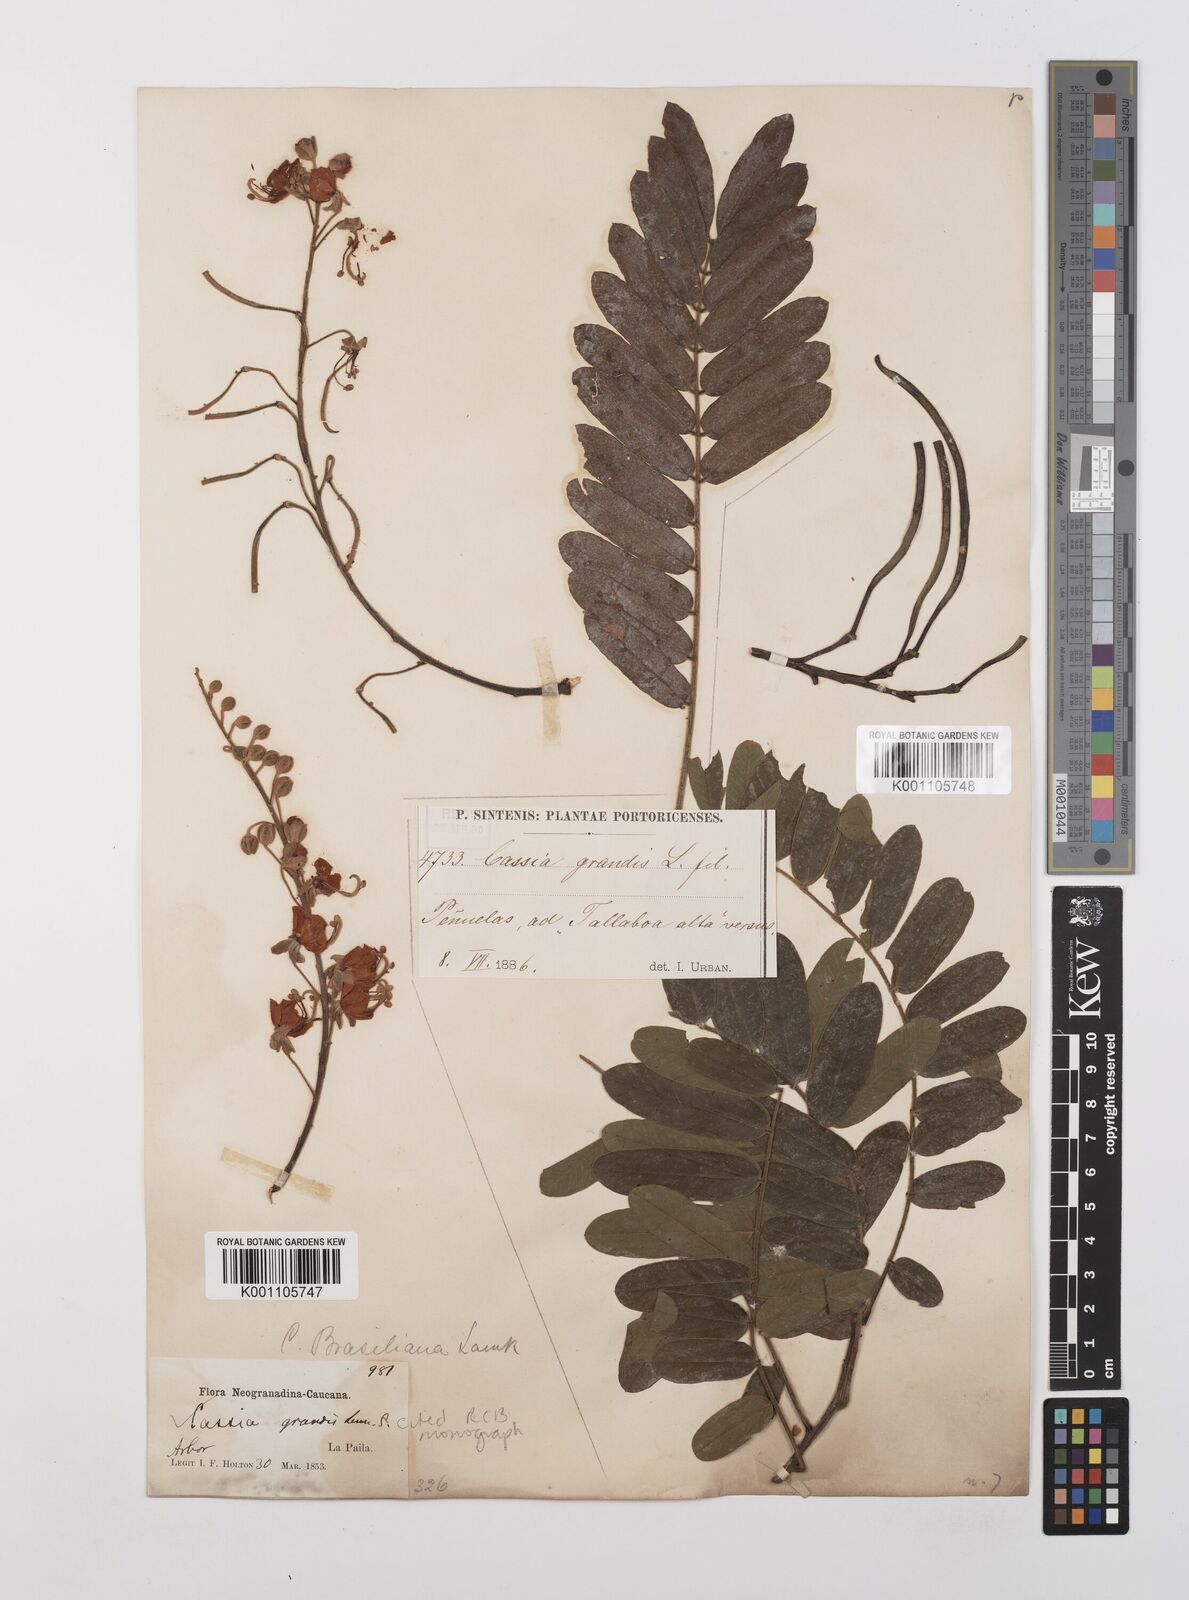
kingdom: Plantae
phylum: Tracheophyta
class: Magnoliopsida
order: Fabales
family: Fabaceae
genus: Cassia
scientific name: Cassia grandis
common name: Appleblossom cassia
